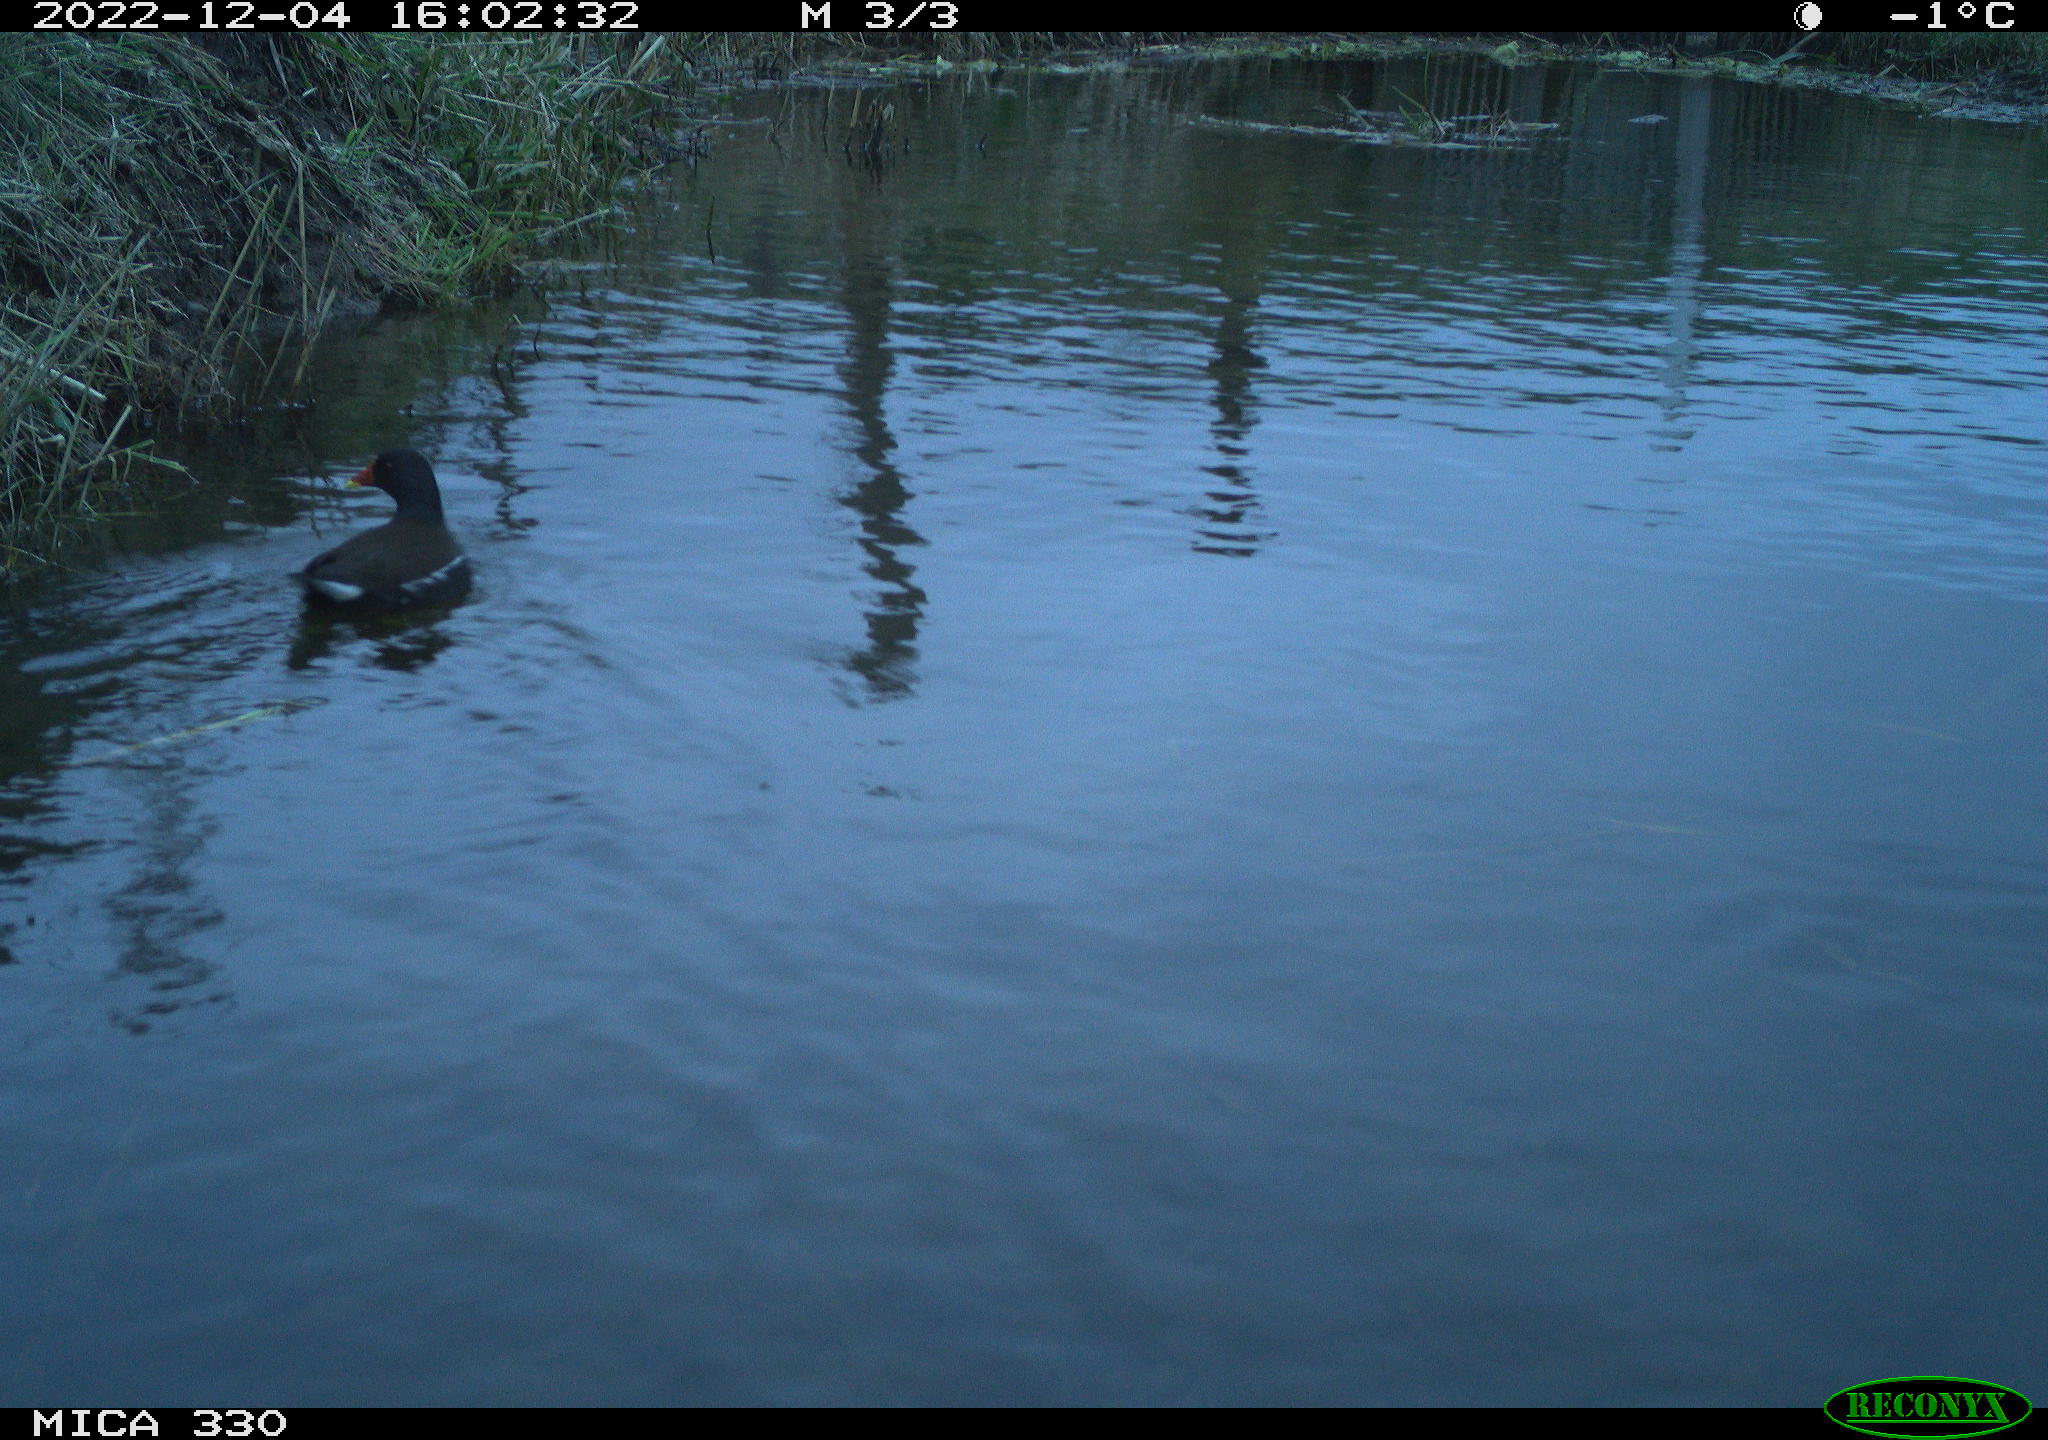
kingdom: Animalia
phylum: Chordata
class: Aves
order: Gruiformes
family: Rallidae
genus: Gallinula
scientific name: Gallinula chloropus
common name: Common moorhen
